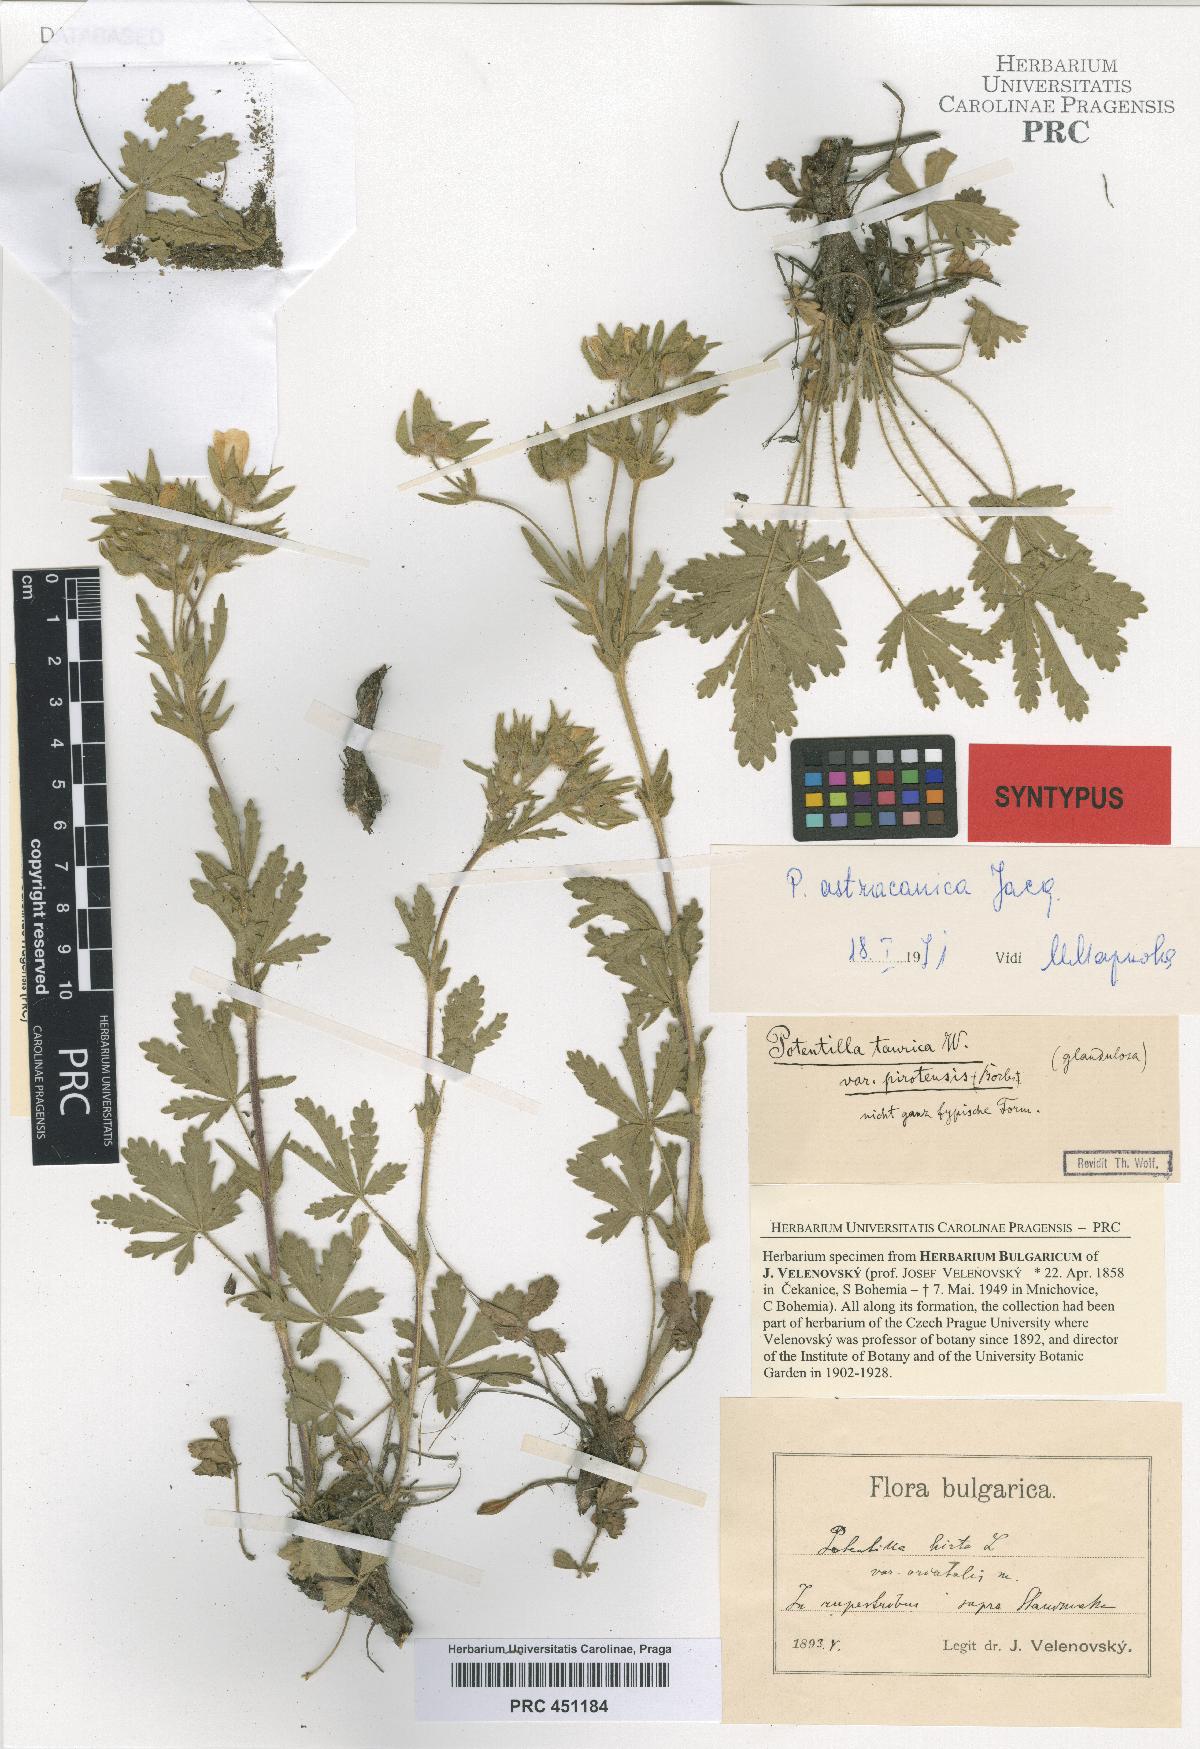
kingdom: Plantae
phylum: Tracheophyta
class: Magnoliopsida
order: Rosales
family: Rosaceae
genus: Potentilla
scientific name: Potentilla astracanica
